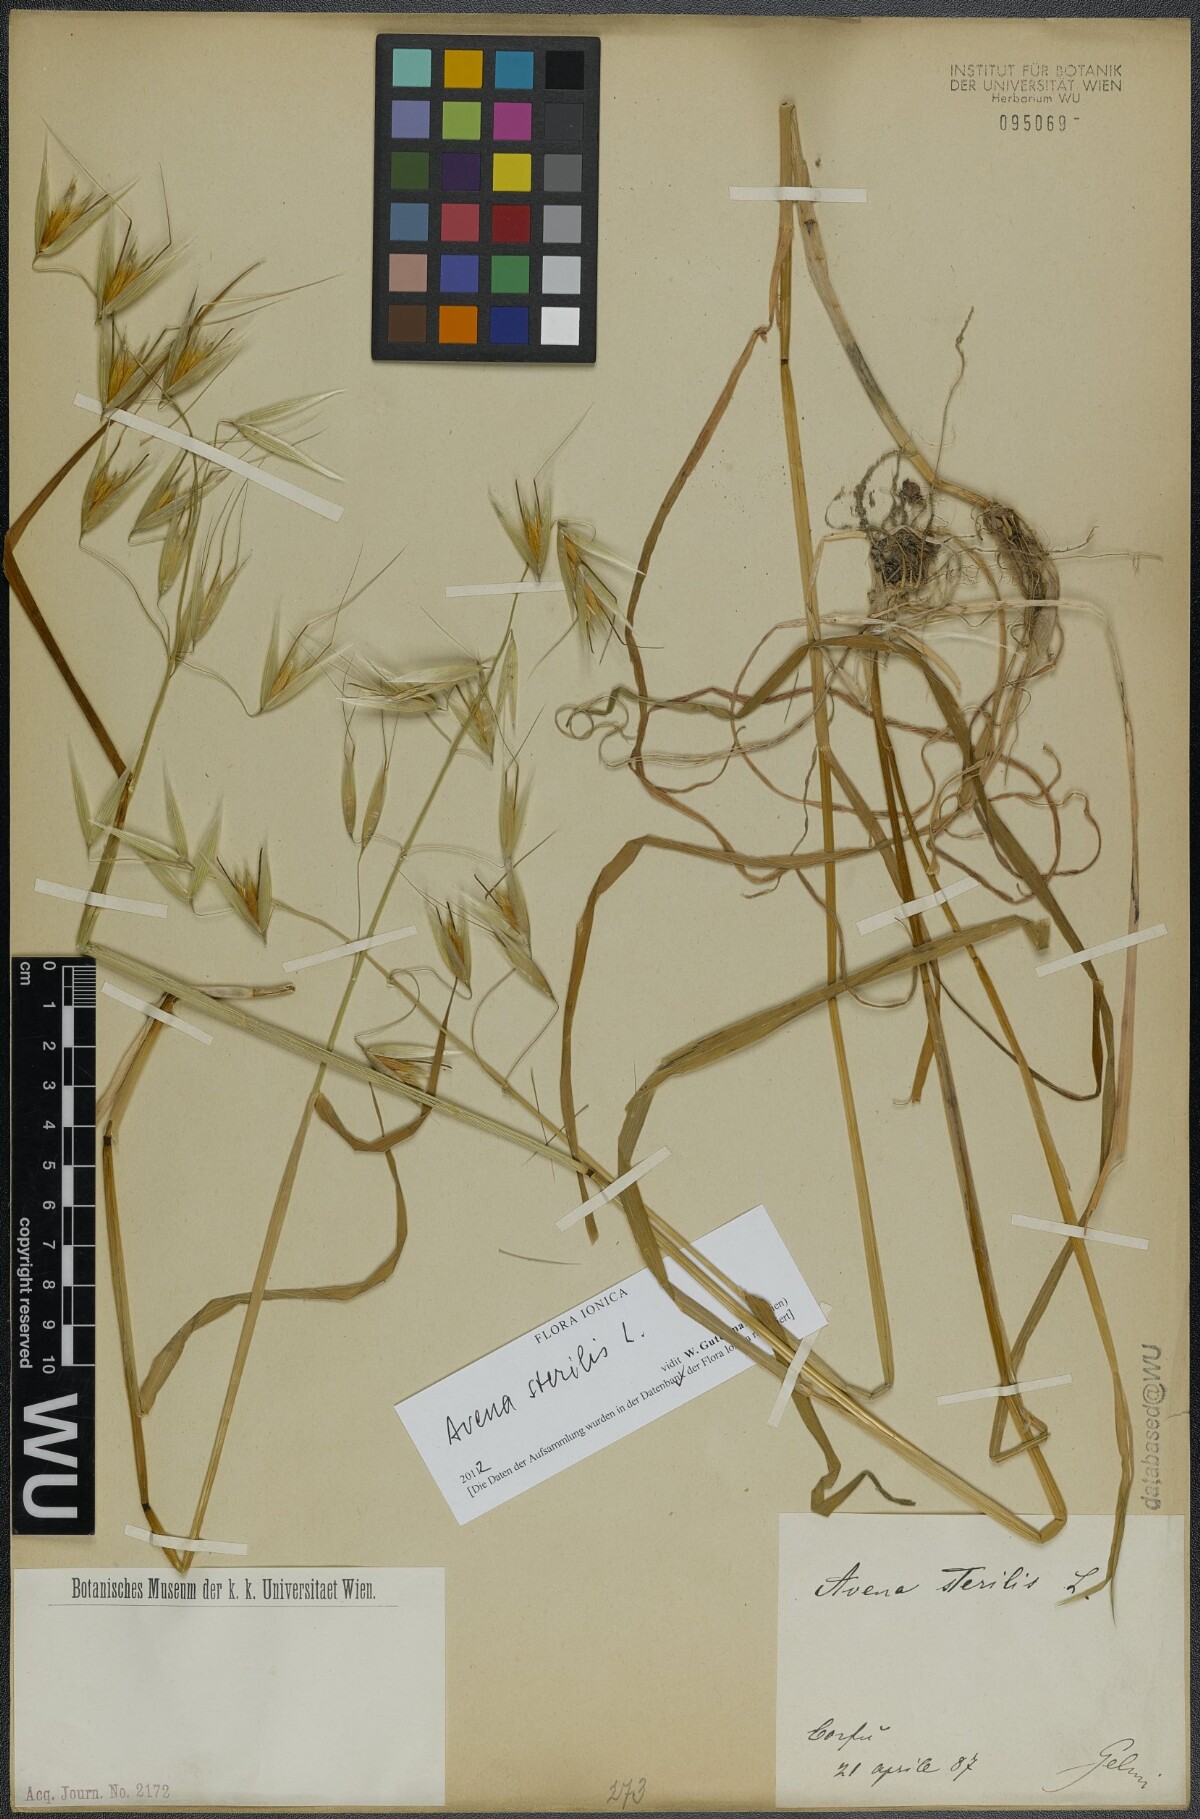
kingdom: Plantae
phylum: Tracheophyta
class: Liliopsida
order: Poales
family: Poaceae
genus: Avena
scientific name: Avena sterilis
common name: Animated oat
